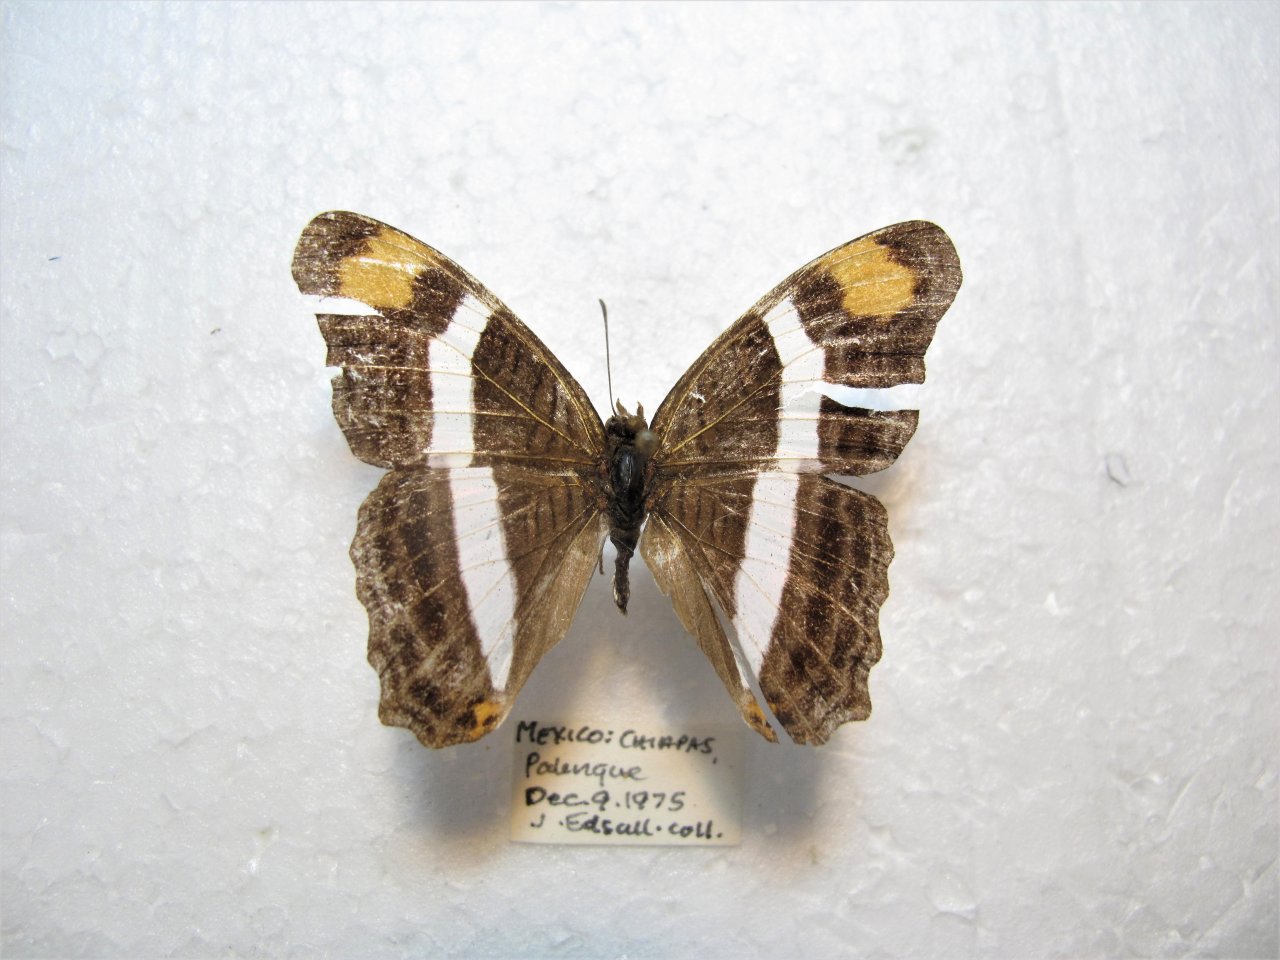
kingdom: Animalia
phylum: Arthropoda
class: Insecta
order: Lepidoptera
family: Nymphalidae
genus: Limenitis
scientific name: Limenitis fessonia
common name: Band-celled Sister
